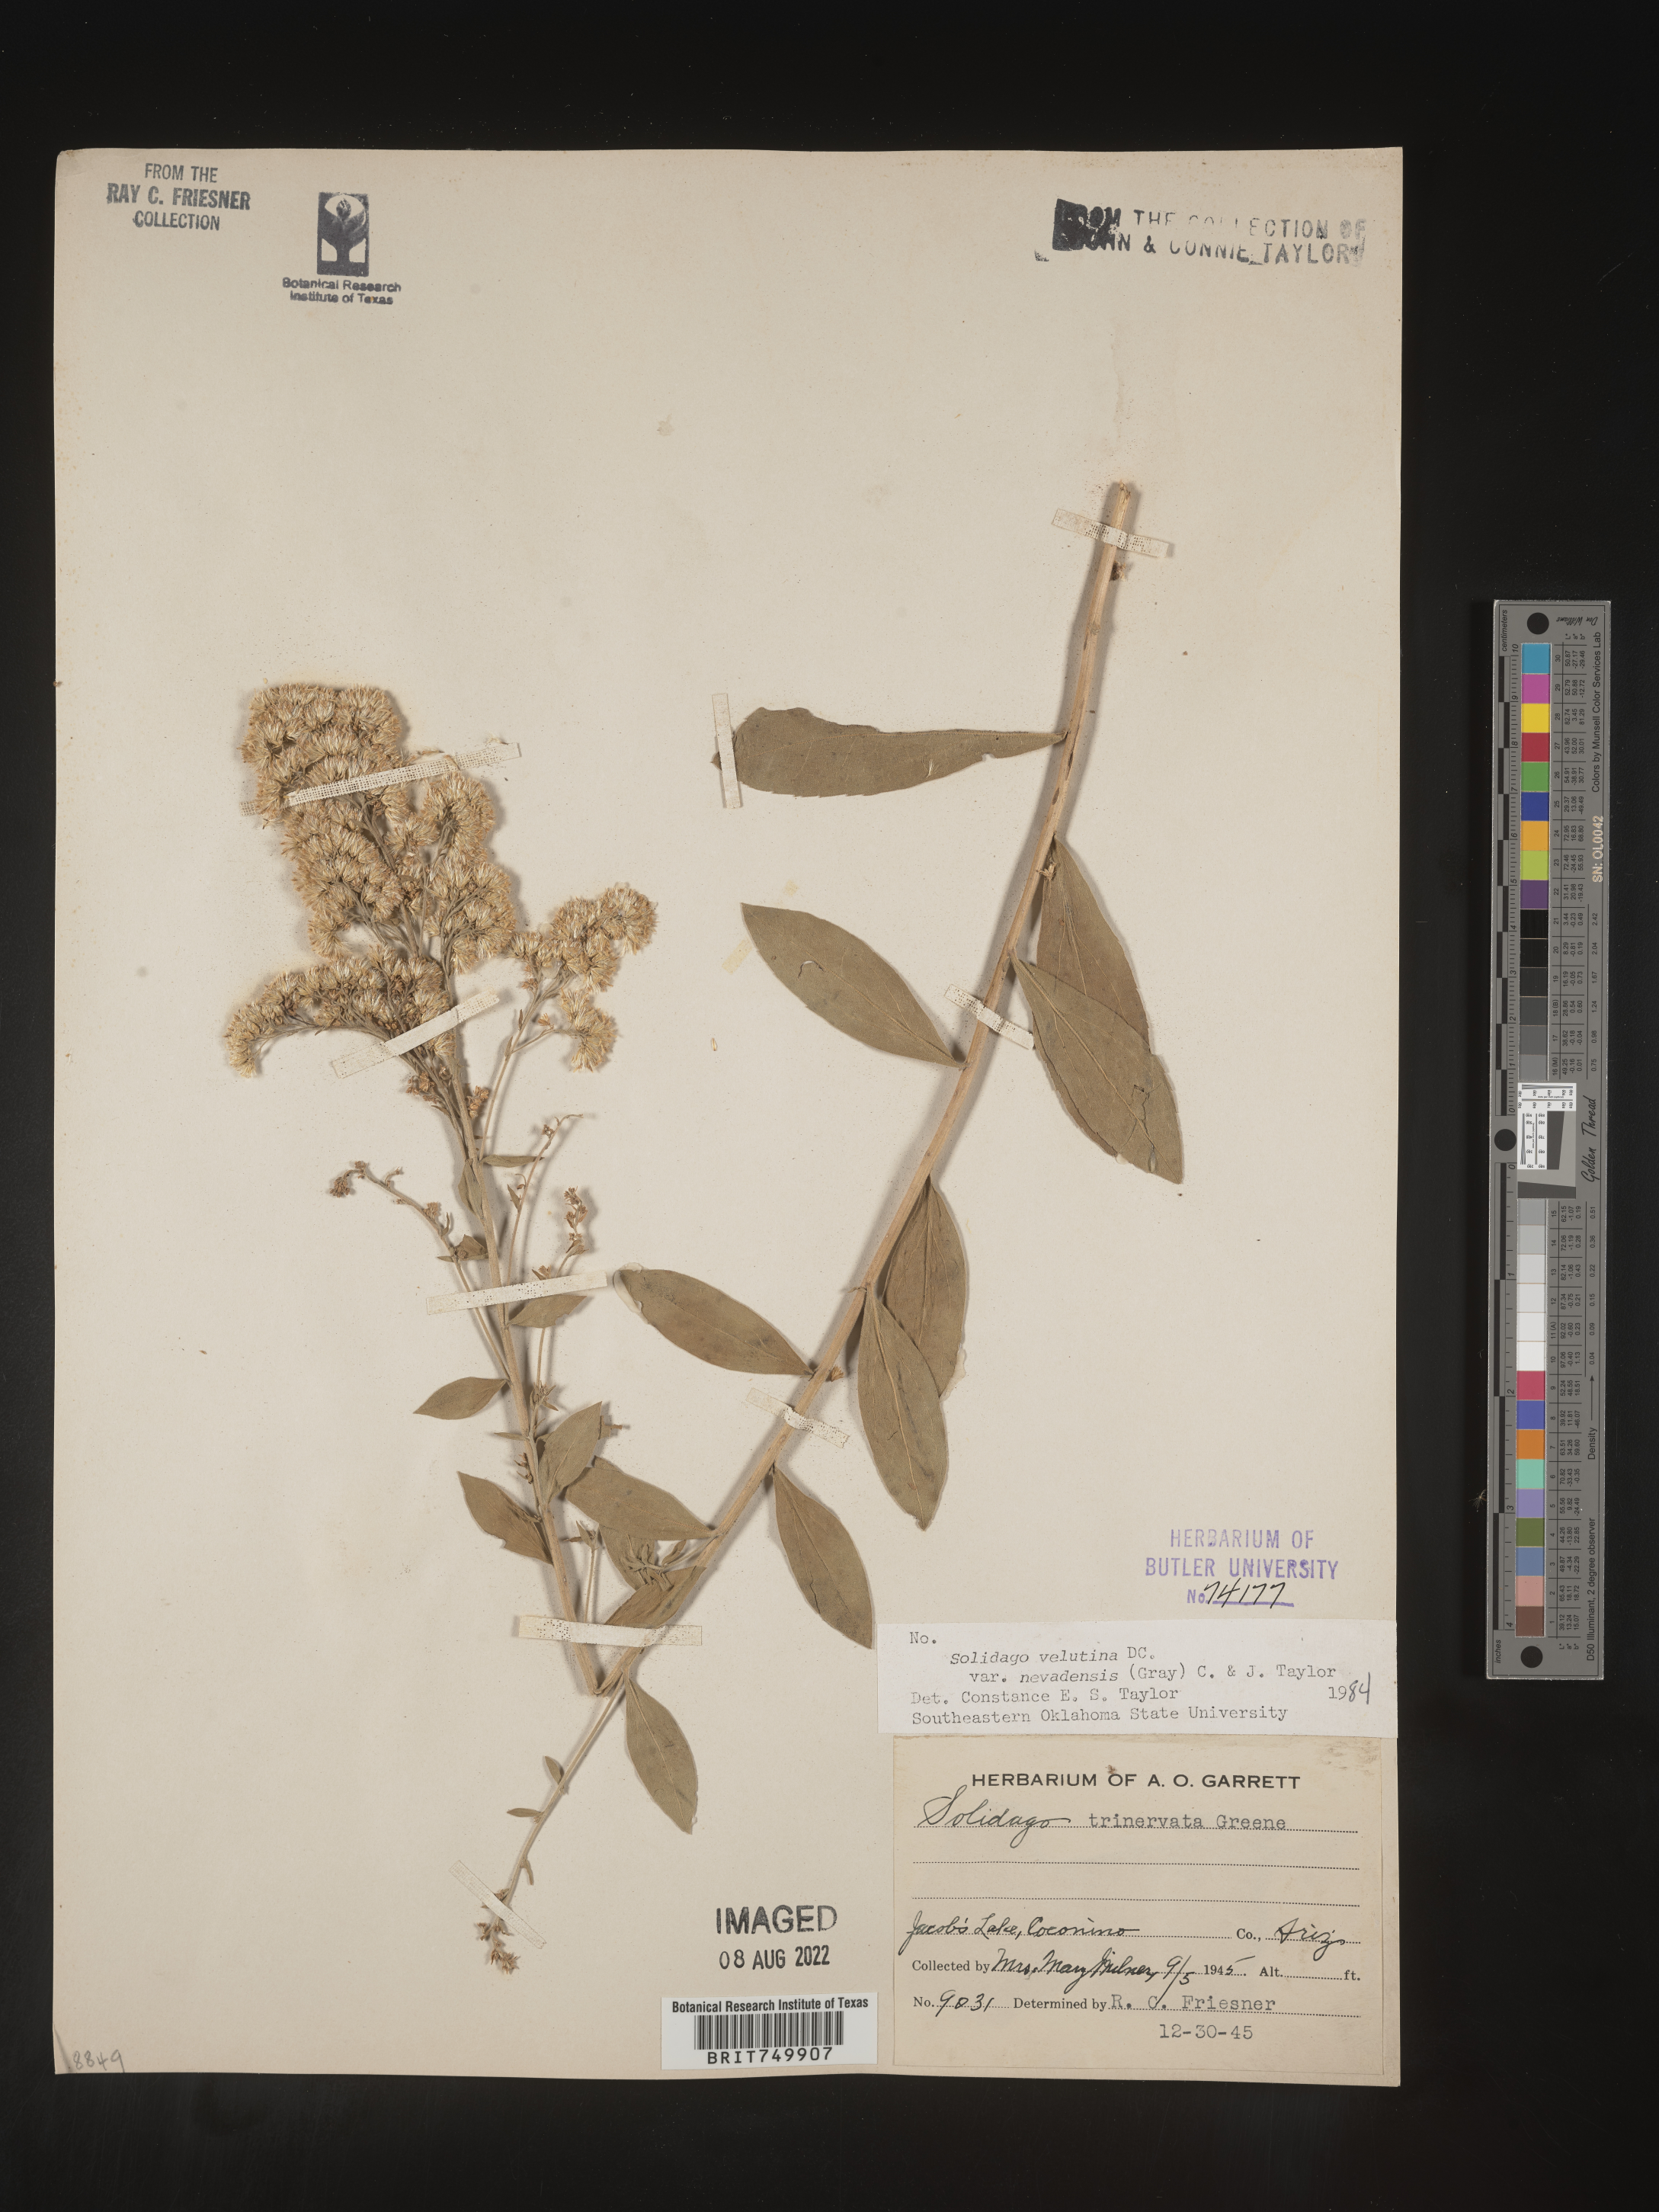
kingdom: Plantae
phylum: Tracheophyta
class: Magnoliopsida
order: Asterales
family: Asteraceae
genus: Solidago
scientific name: Solidago velutina
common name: Three-nerve goldenrod
